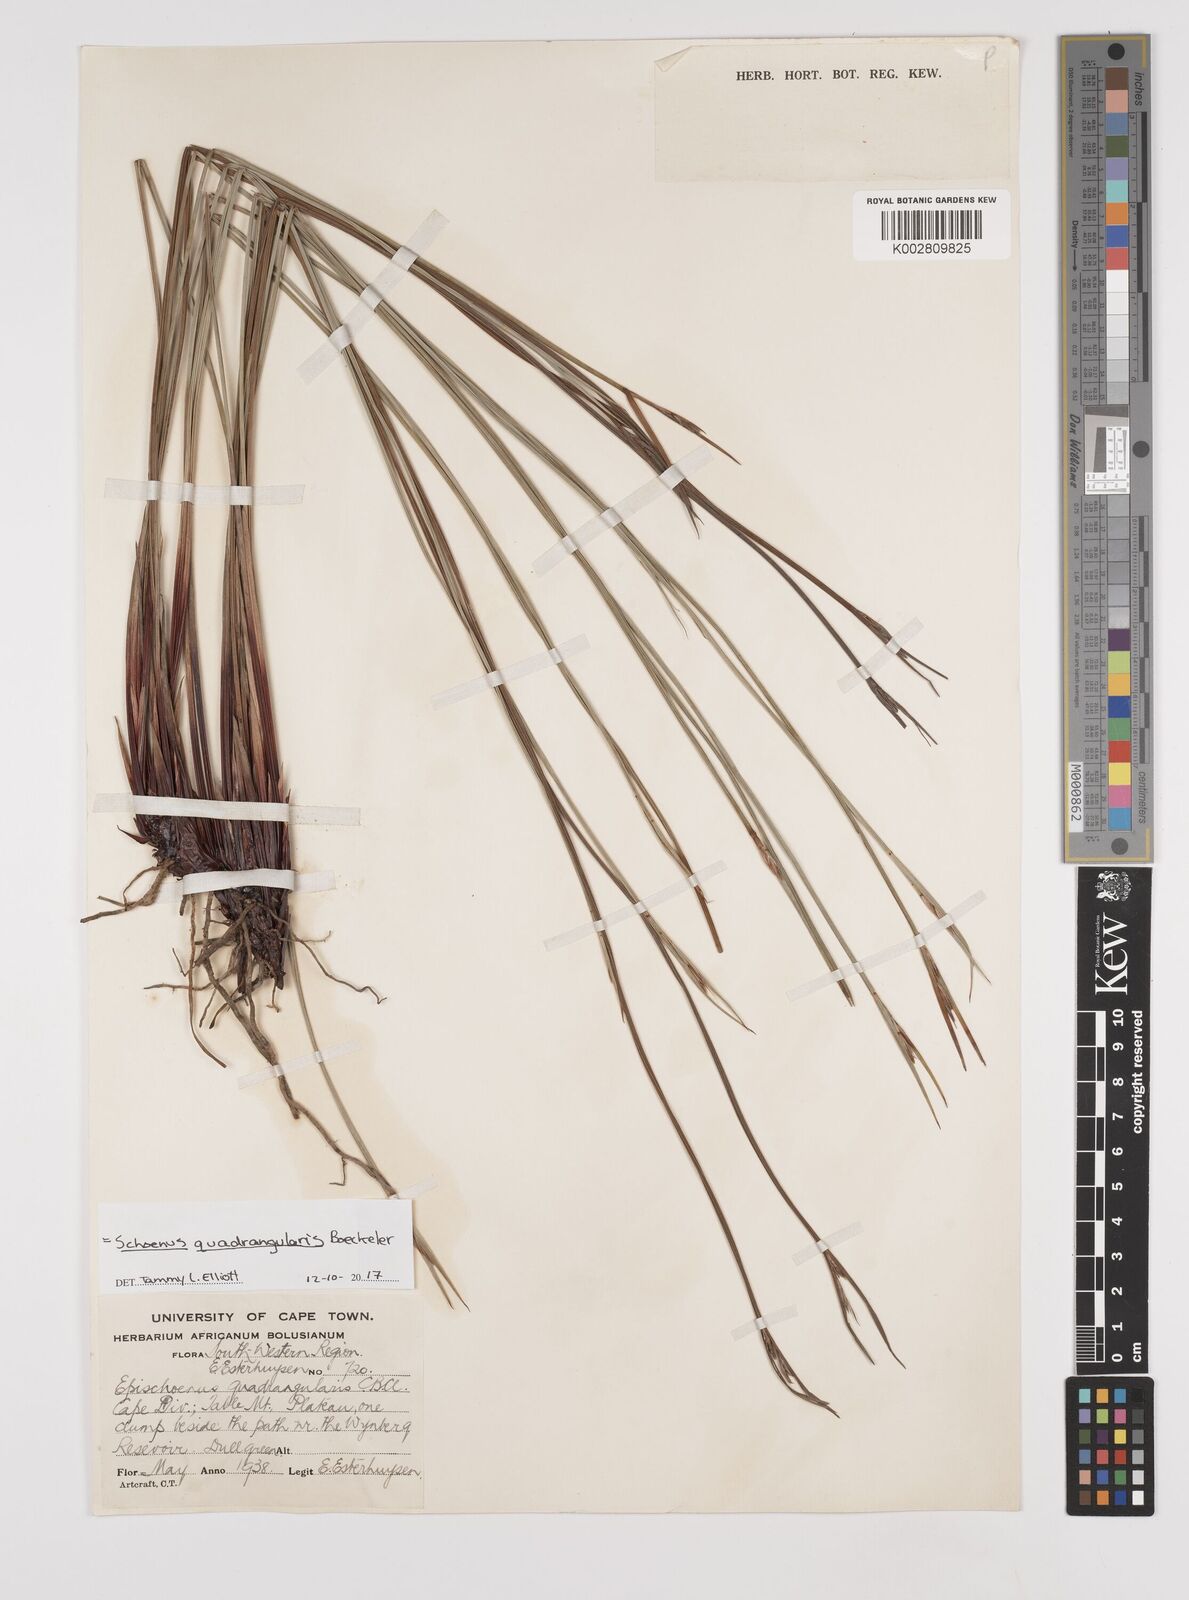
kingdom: Plantae
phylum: Tracheophyta
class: Liliopsida
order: Poales
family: Cyperaceae
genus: Schoenus
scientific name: Schoenus quadrangularis
